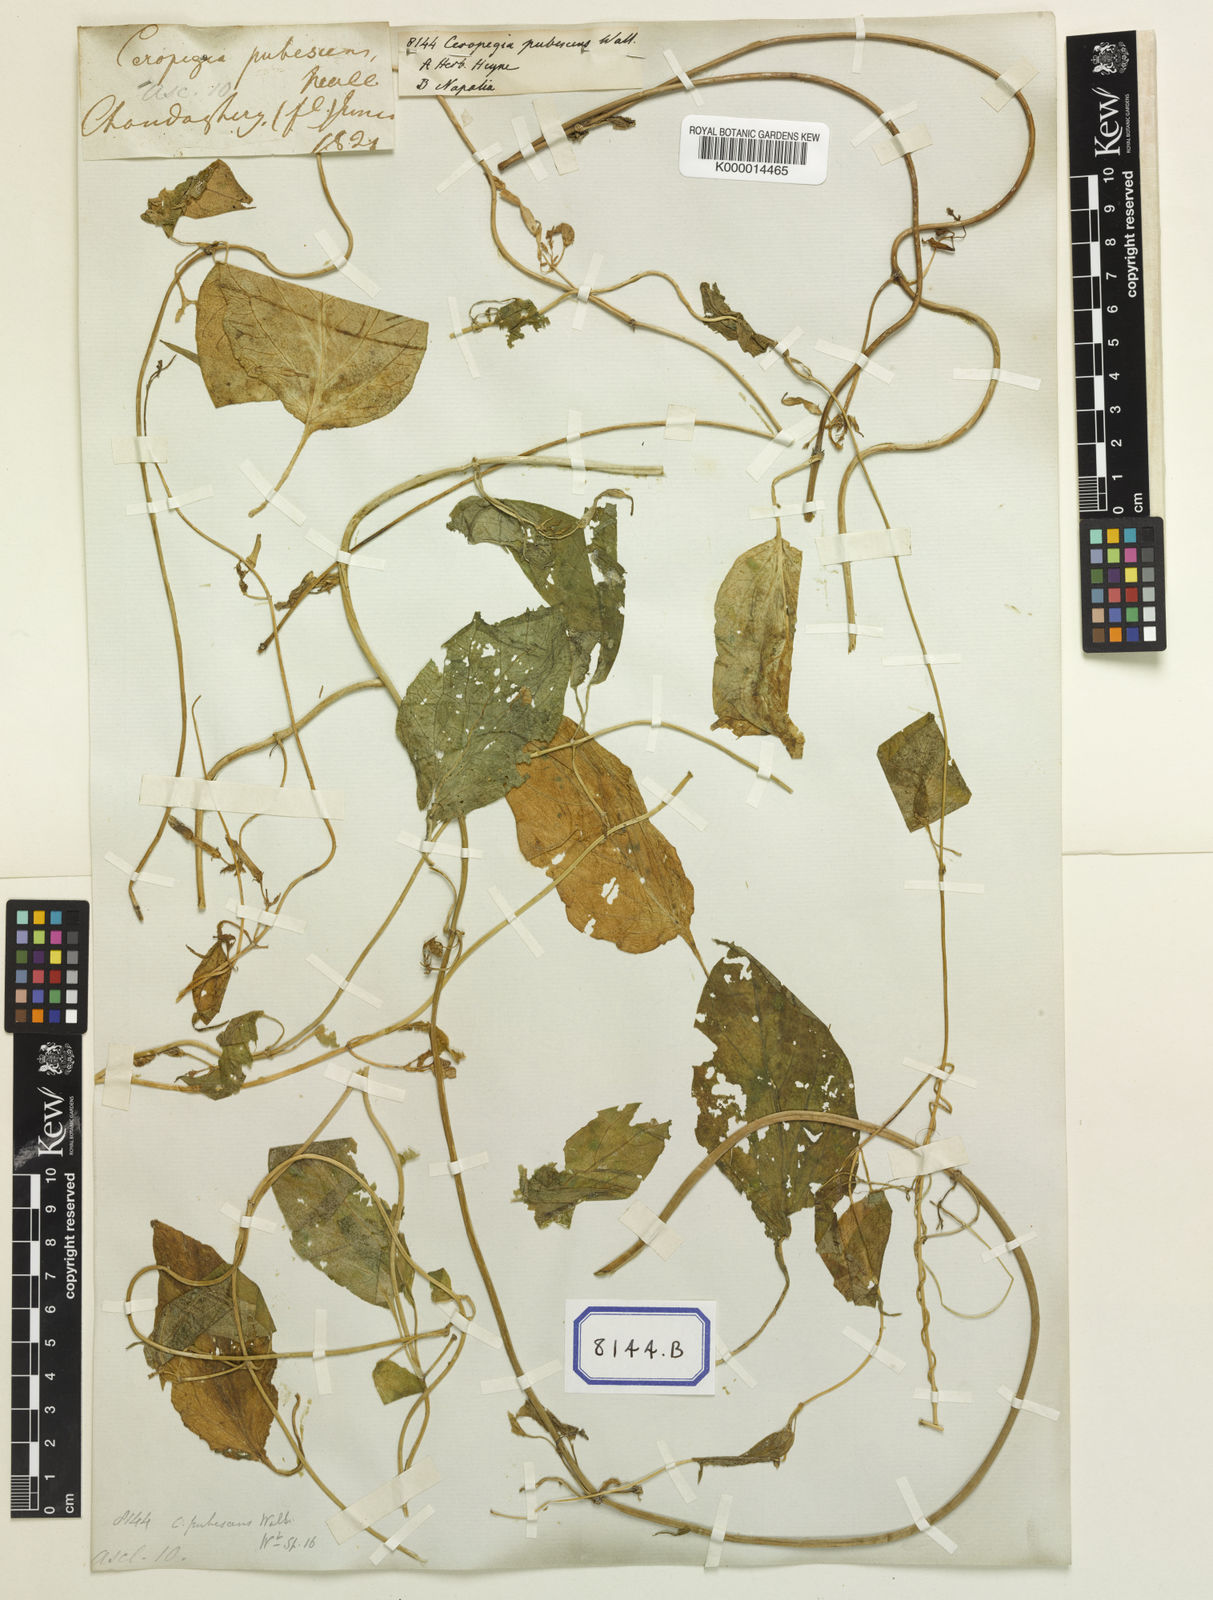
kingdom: Plantae
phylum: Tracheophyta
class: Magnoliopsida
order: Gentianales
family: Apocynaceae
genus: Ceropegia
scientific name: Ceropegia pubescens
